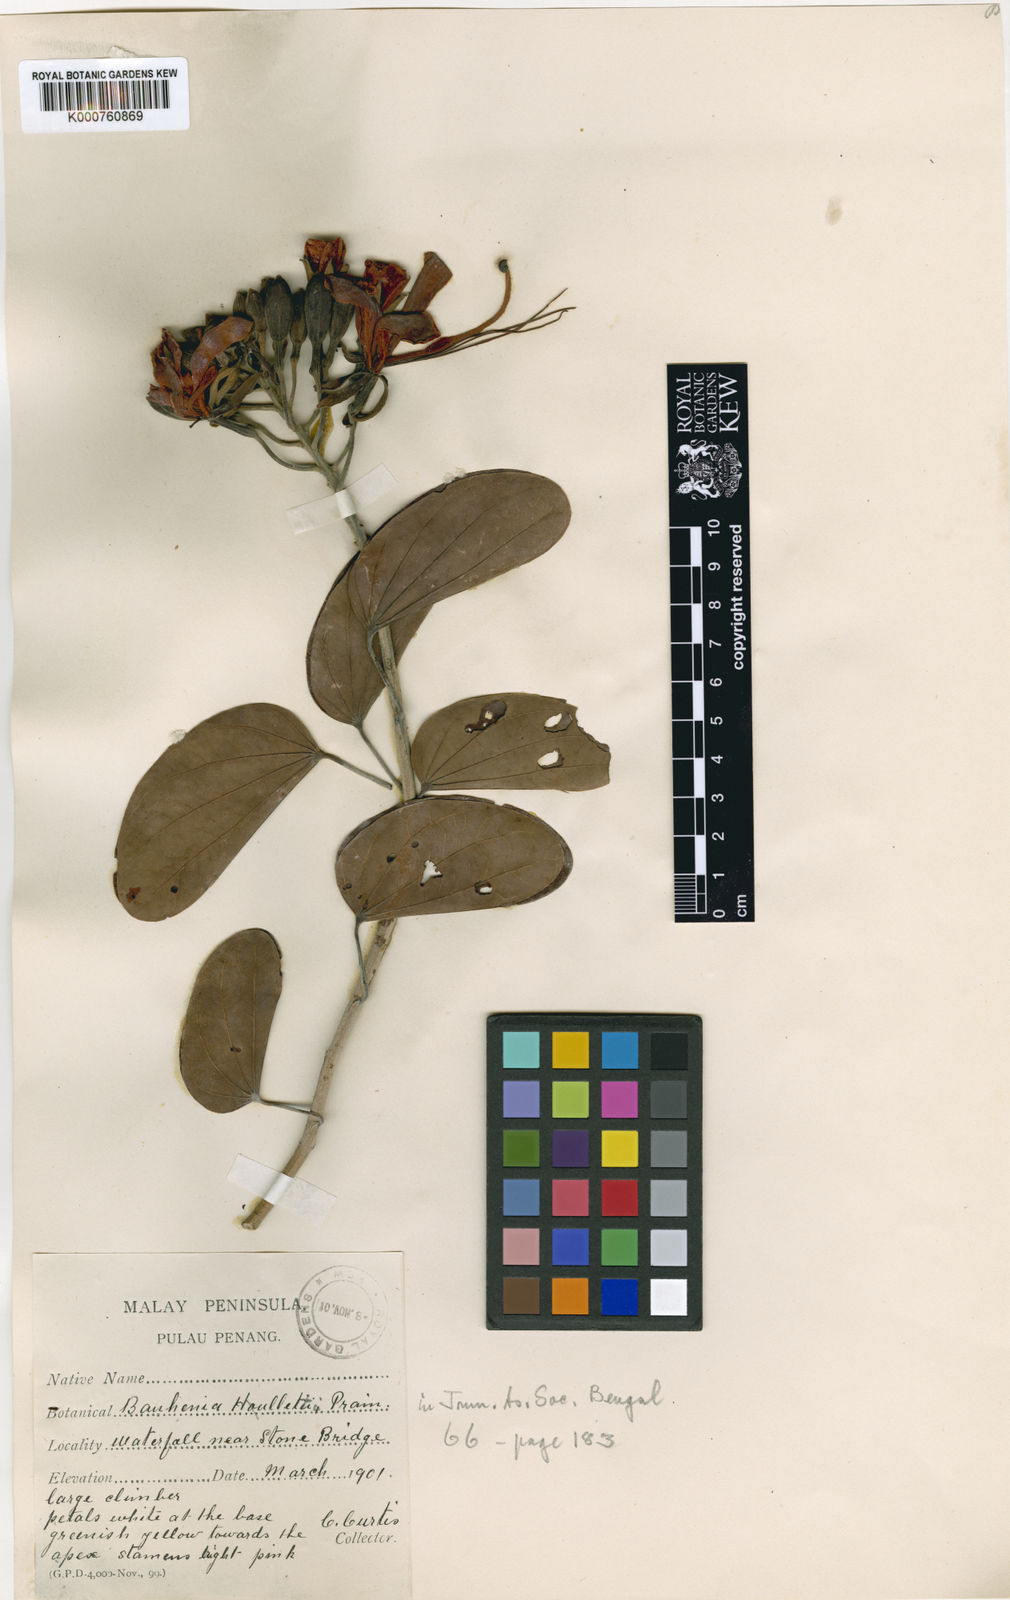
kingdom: Plantae
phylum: Tracheophyta
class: Magnoliopsida
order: Fabales
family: Fabaceae
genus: Phanera
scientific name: Phanera ferruginea
